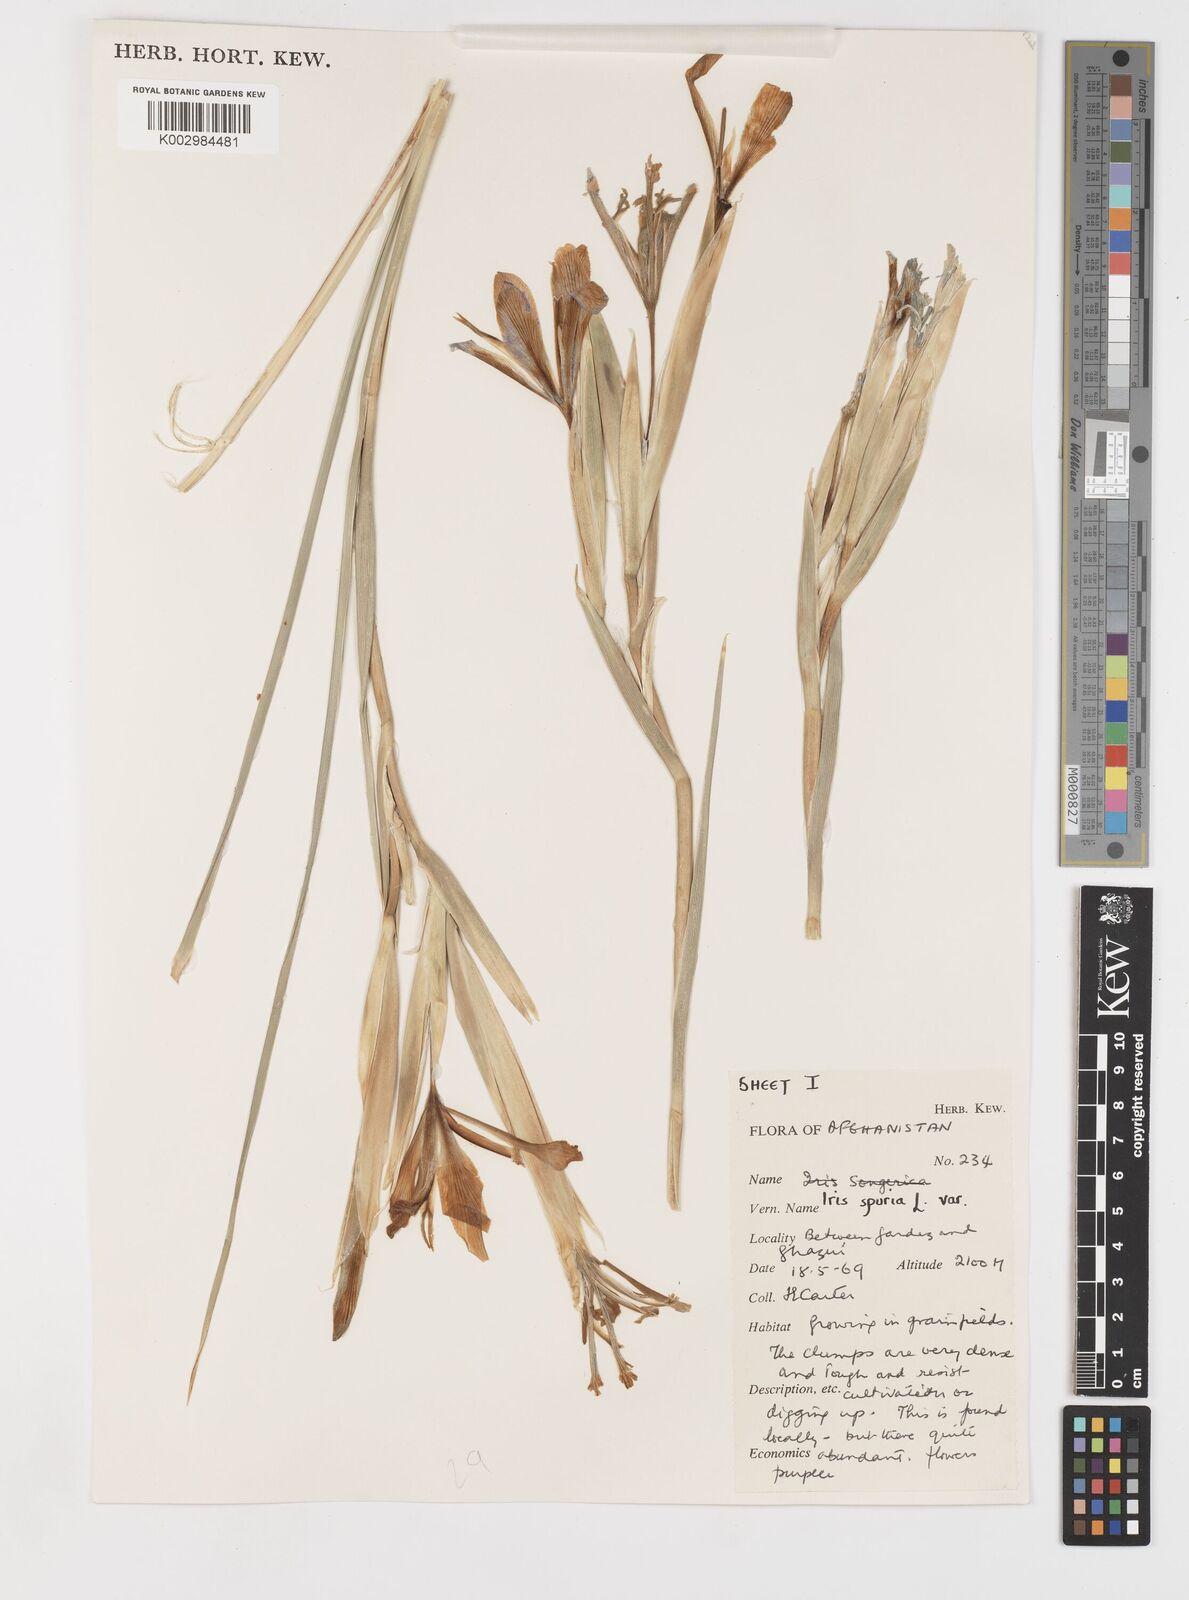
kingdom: Plantae
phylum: Tracheophyta
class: Liliopsida
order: Asparagales
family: Iridaceae
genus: Iris
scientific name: Iris songarica
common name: Songar iris
